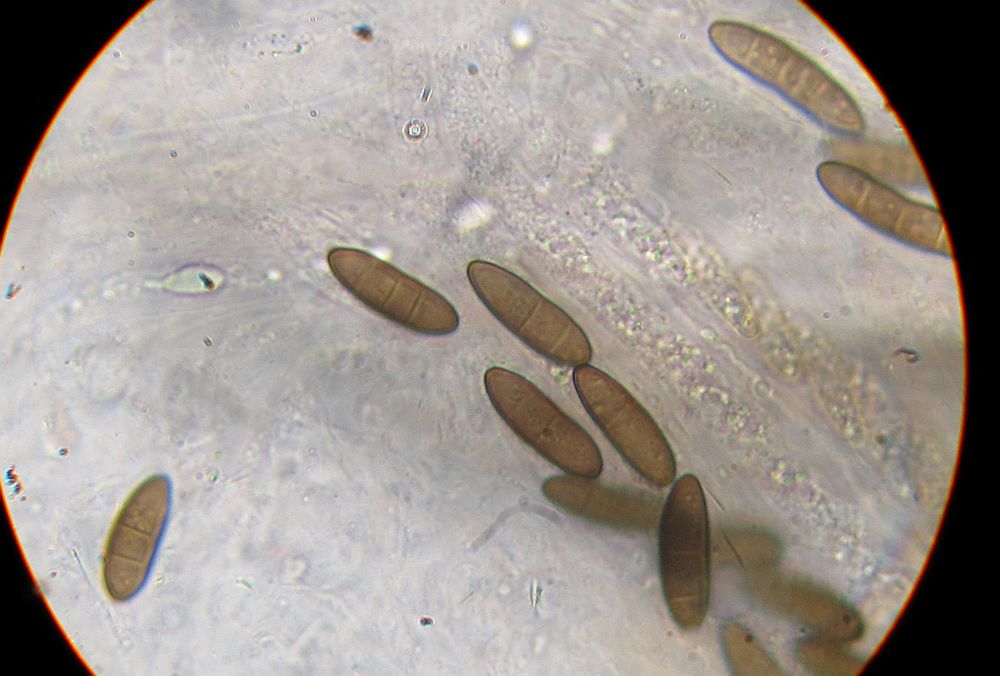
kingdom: Fungi
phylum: Ascomycota
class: Sordariomycetes
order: Amphisphaeriales
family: Clypeosphaeriaceae
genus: Clypeosphaeria
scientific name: Clypeosphaeria mamillana
